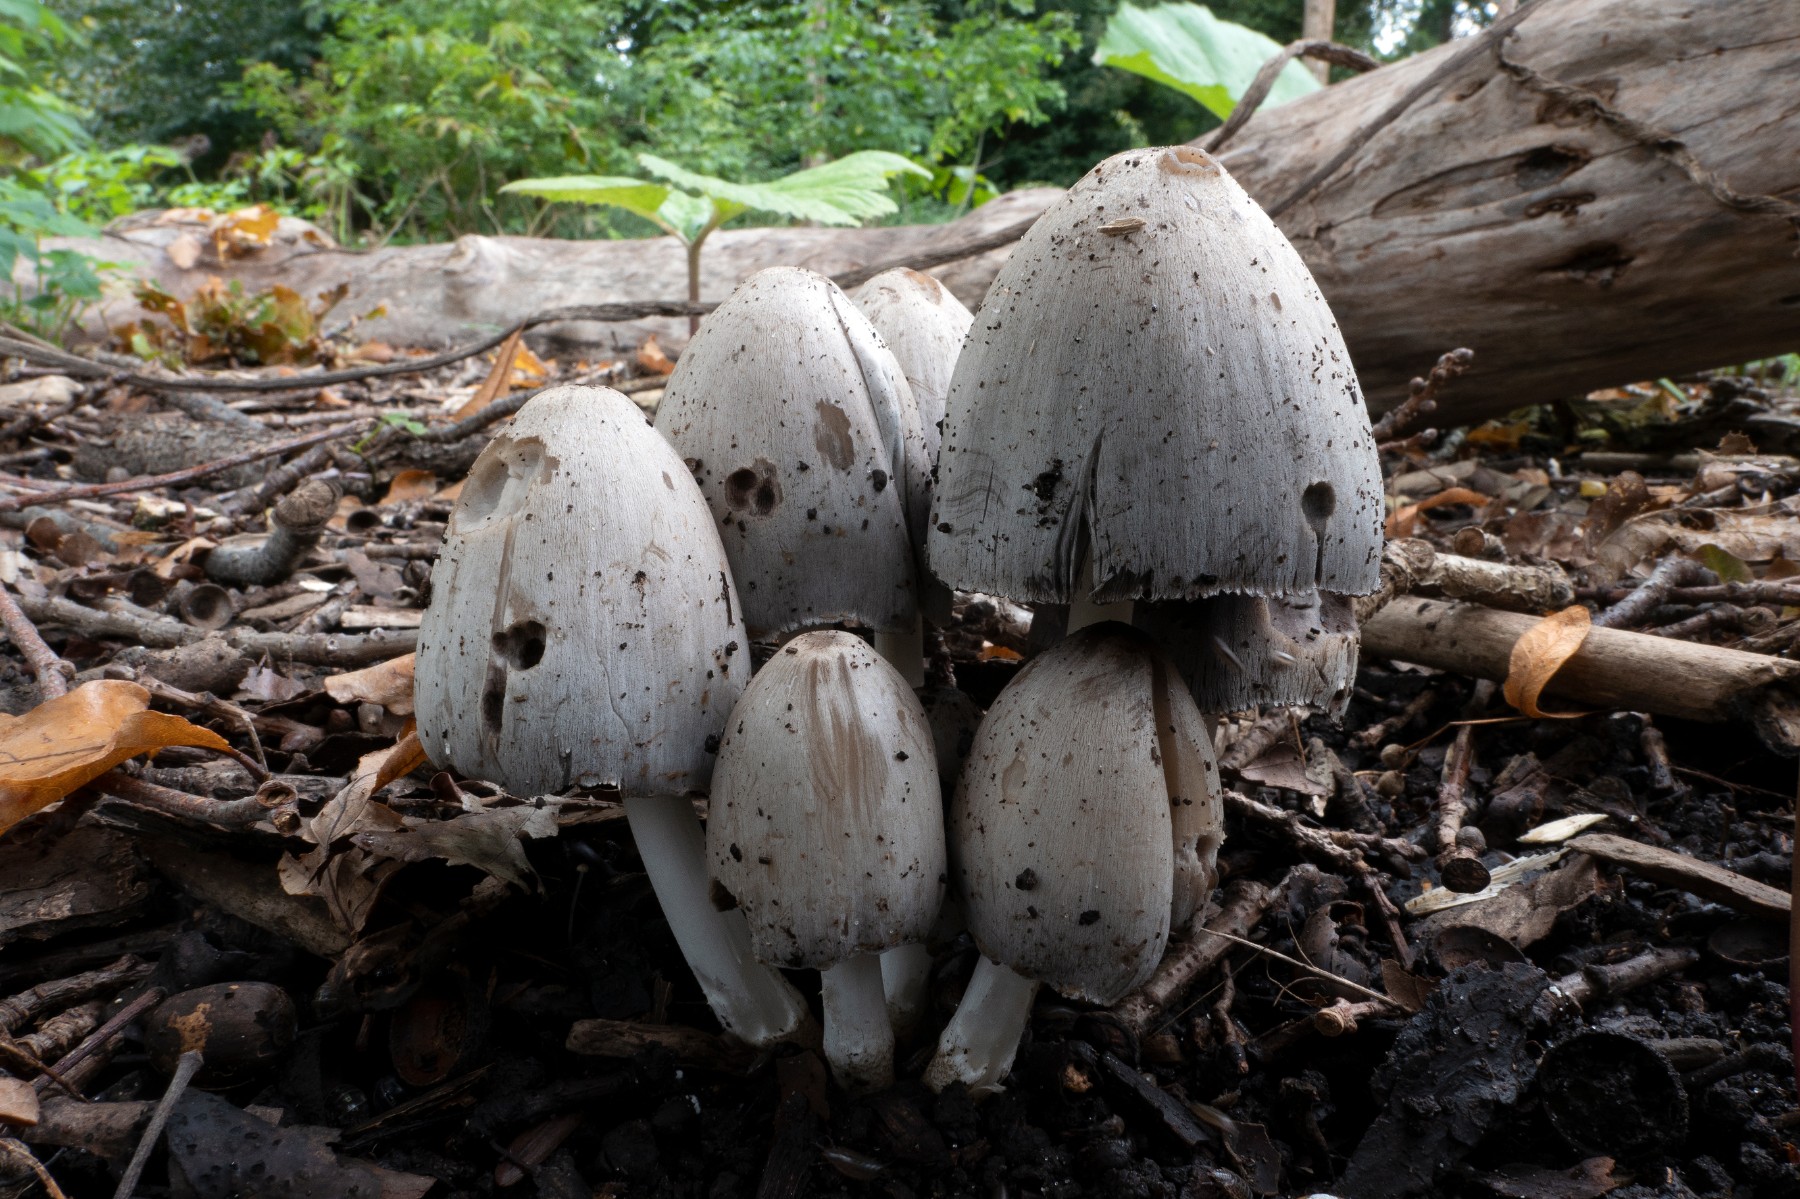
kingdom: Fungi
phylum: Basidiomycota
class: Agaricomycetes
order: Agaricales
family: Psathyrellaceae
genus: Coprinopsis
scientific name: Coprinopsis romagnesiana
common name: brunskællet blækhat
